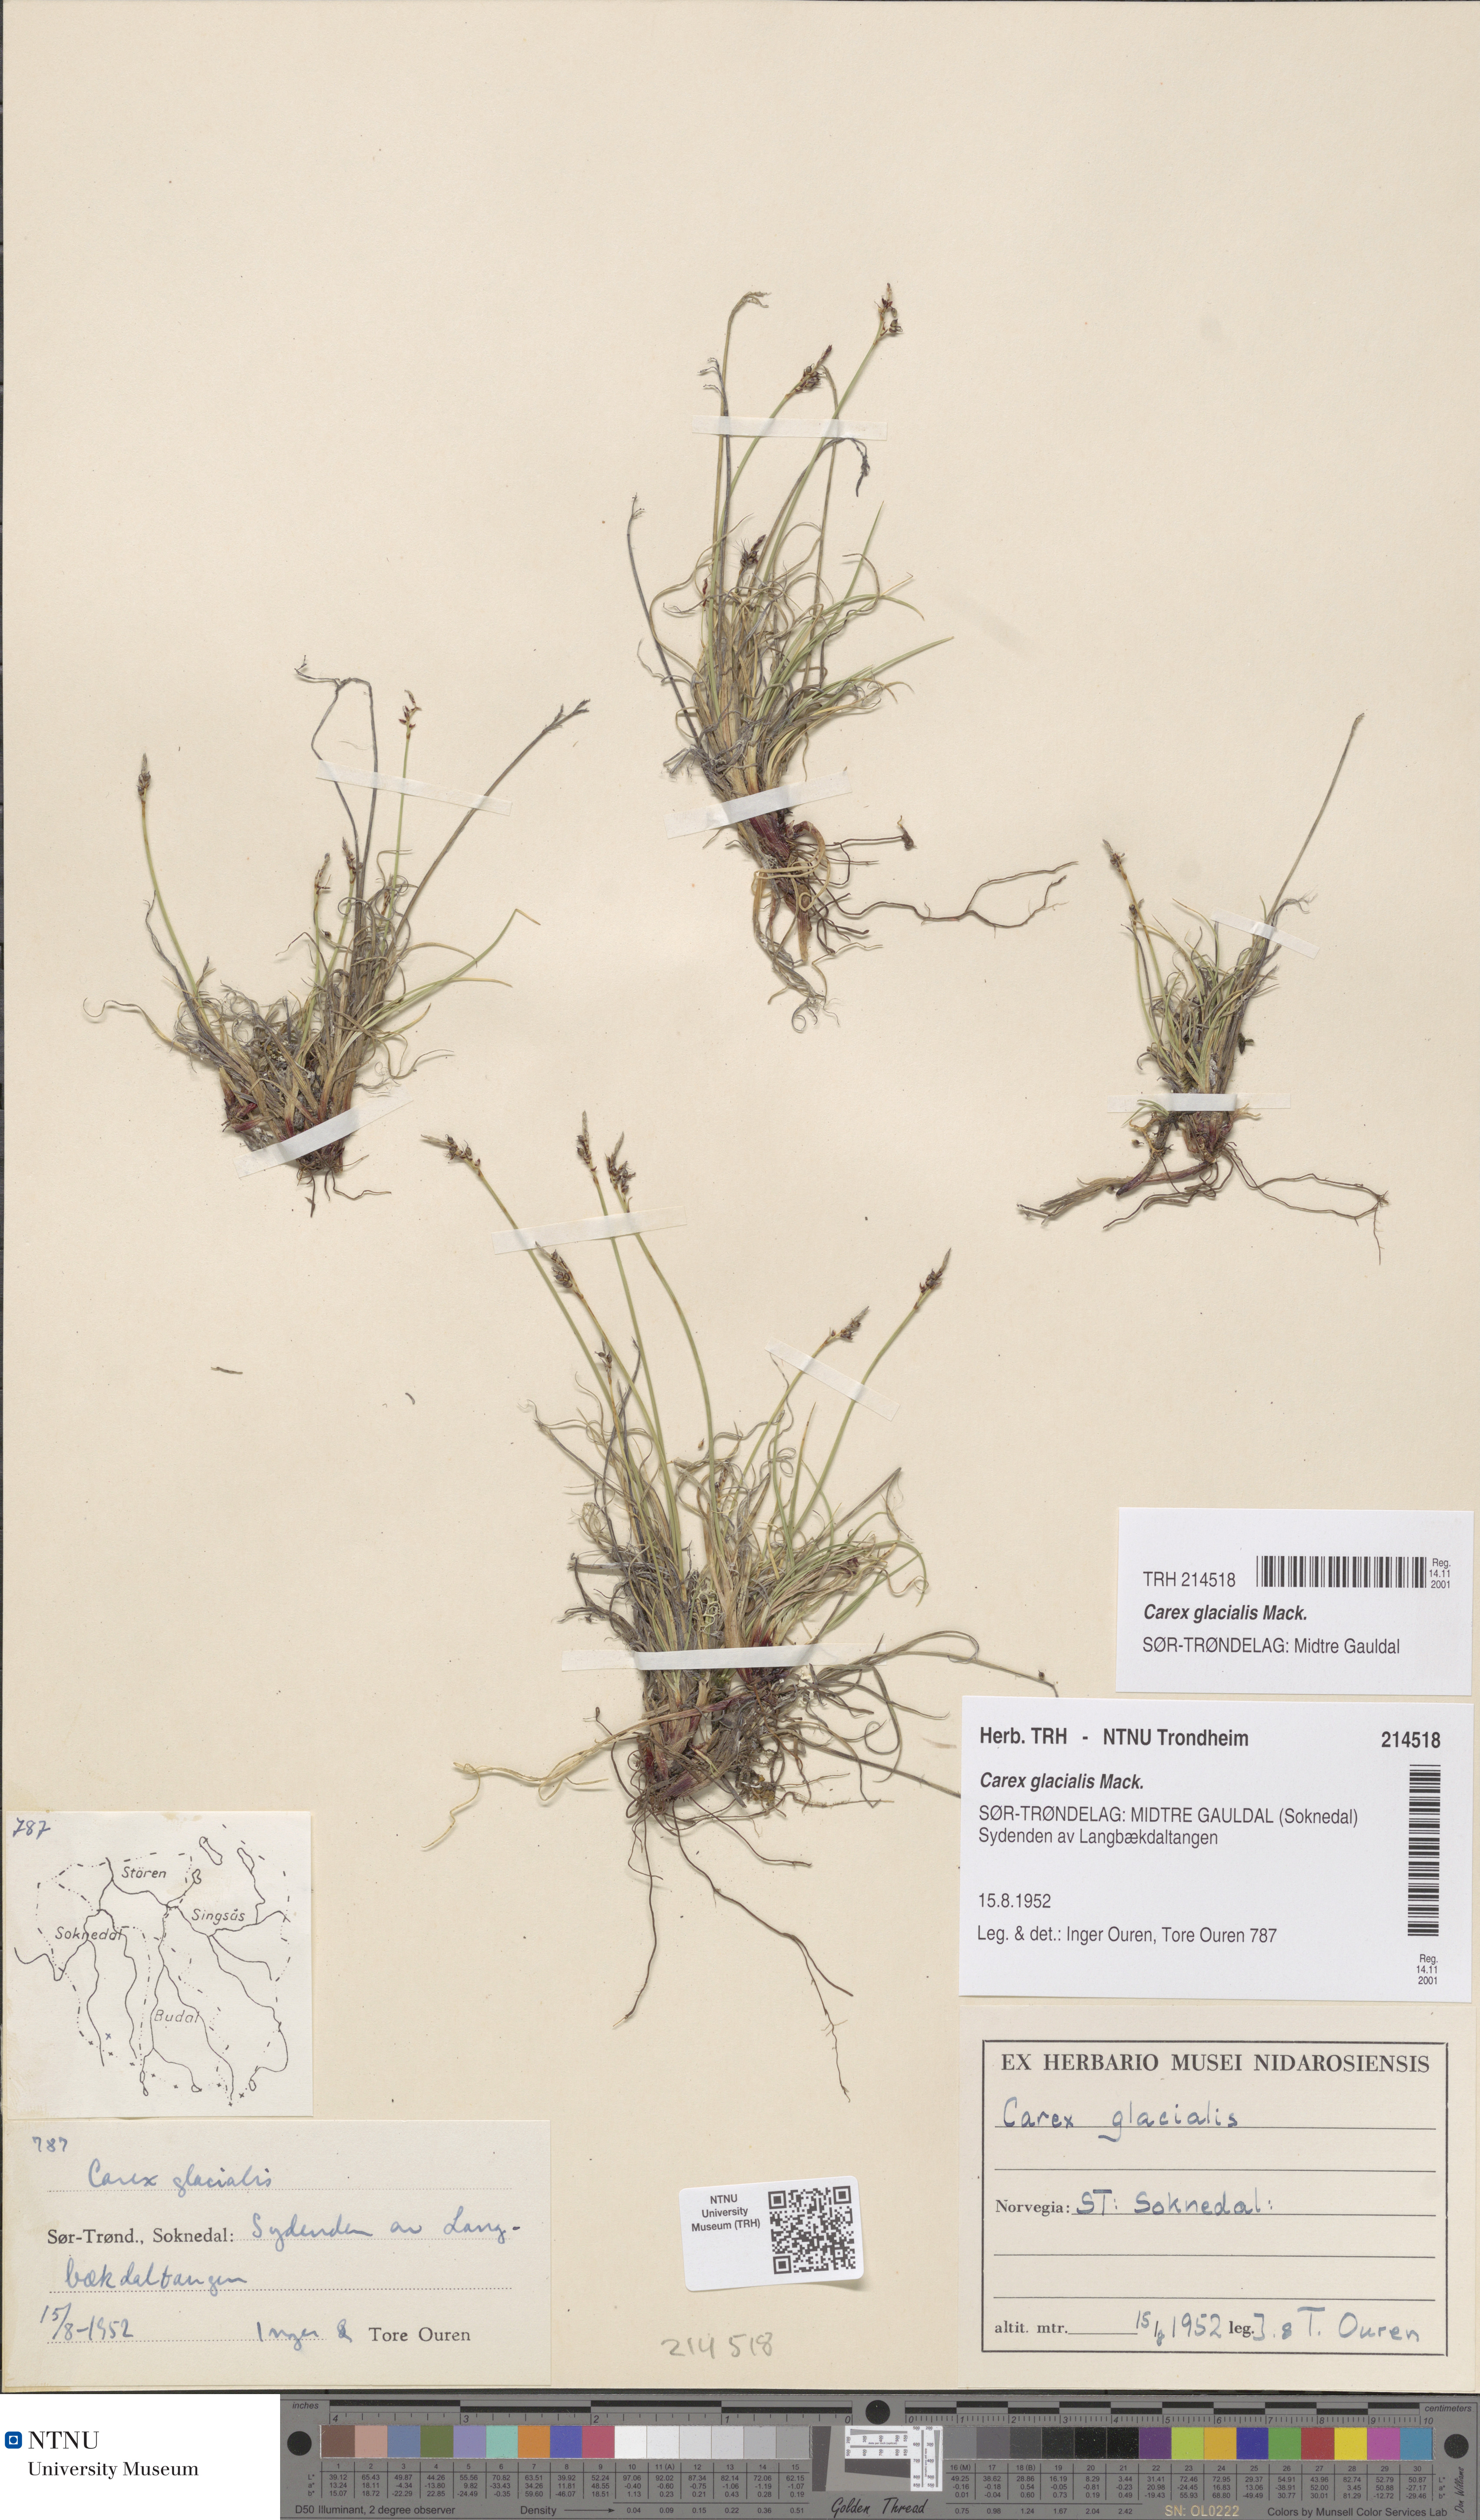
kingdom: Plantae
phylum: Tracheophyta
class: Liliopsida
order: Poales
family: Cyperaceae
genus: Carex
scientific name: Carex glacialis
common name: Newfoundland sedge
